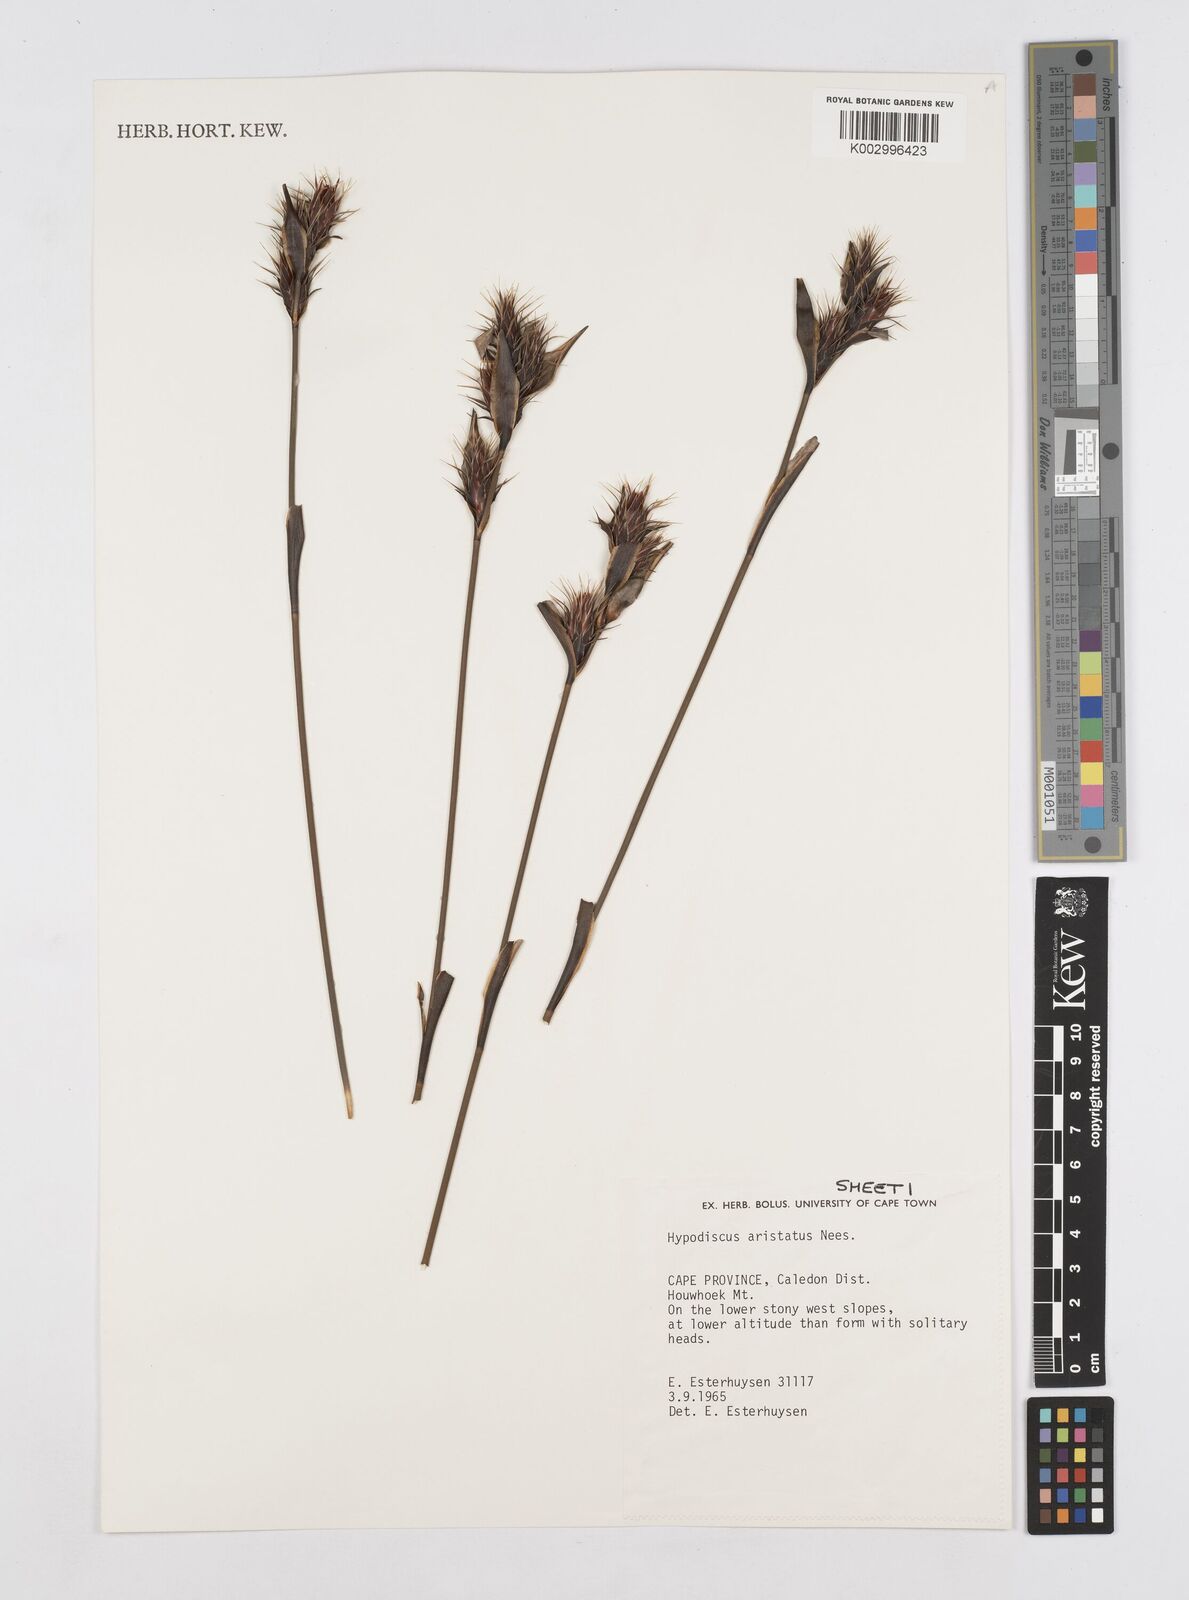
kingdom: Plantae
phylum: Tracheophyta
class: Liliopsida
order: Poales
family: Restionaceae
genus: Hypodiscus
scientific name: Hypodiscus aristatus
